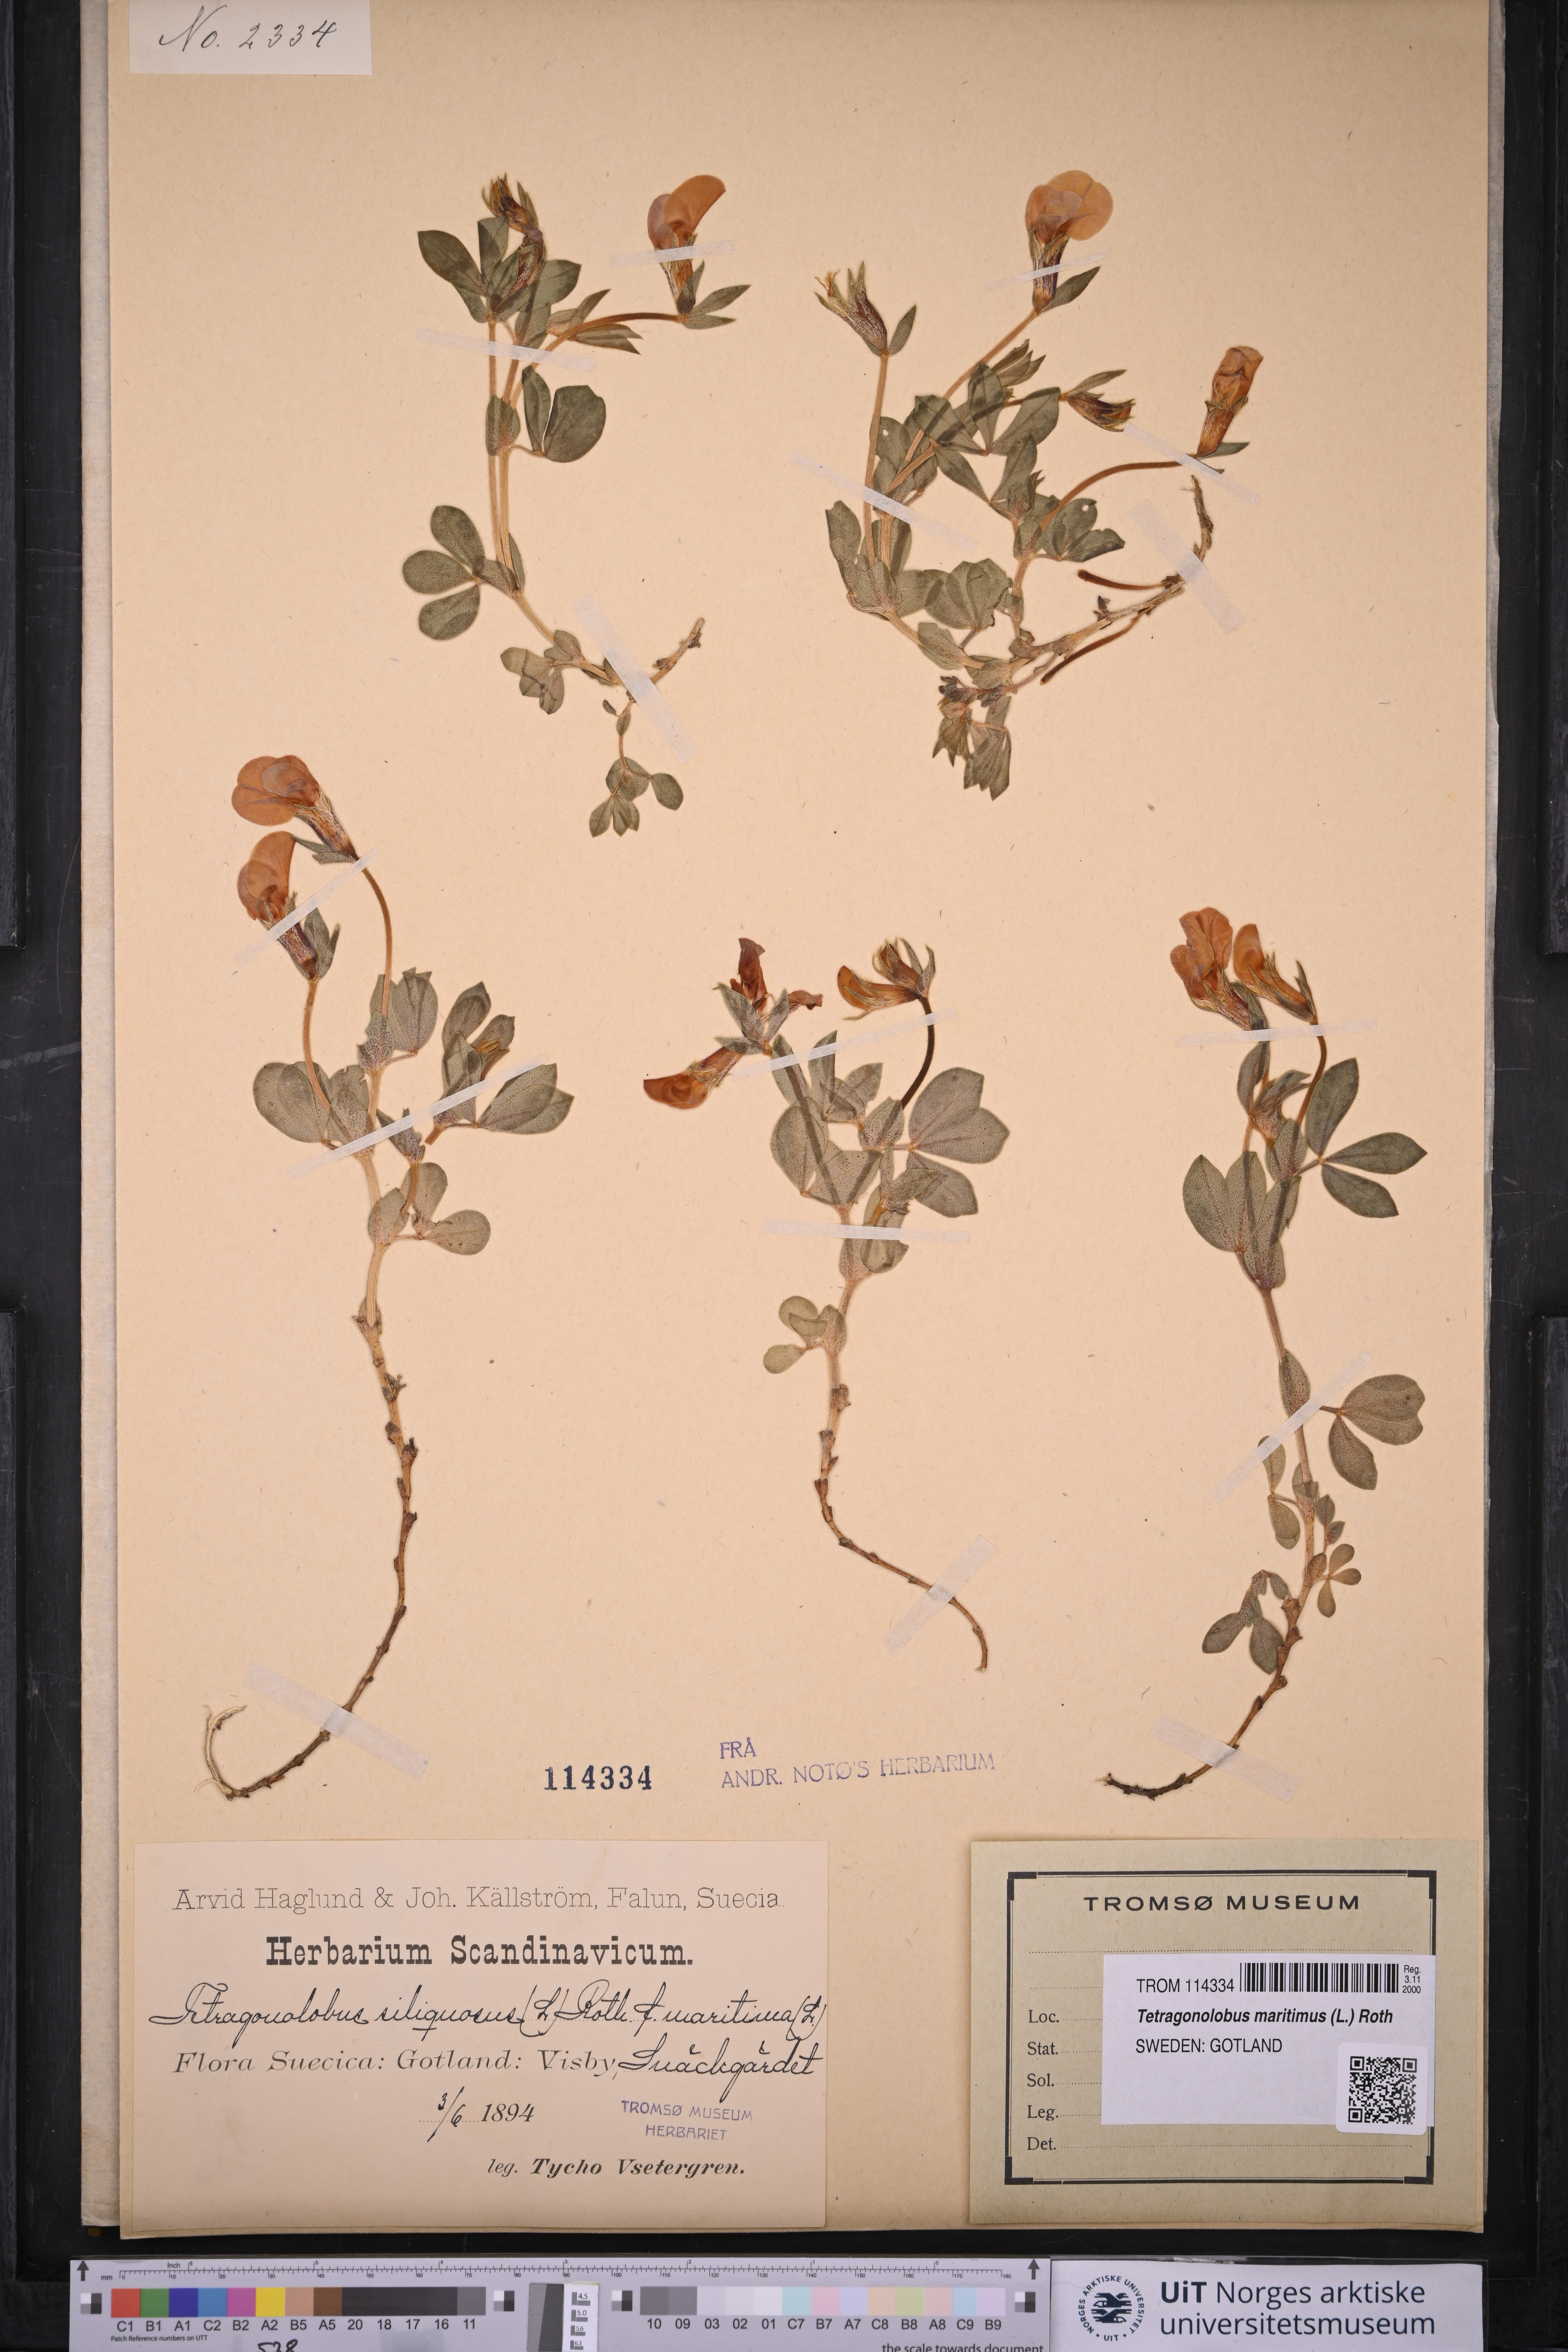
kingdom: Plantae
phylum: Tracheophyta
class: Magnoliopsida
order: Fabales
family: Fabaceae
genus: Lotus
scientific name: Lotus maritimus
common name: Dragon's-teeth
